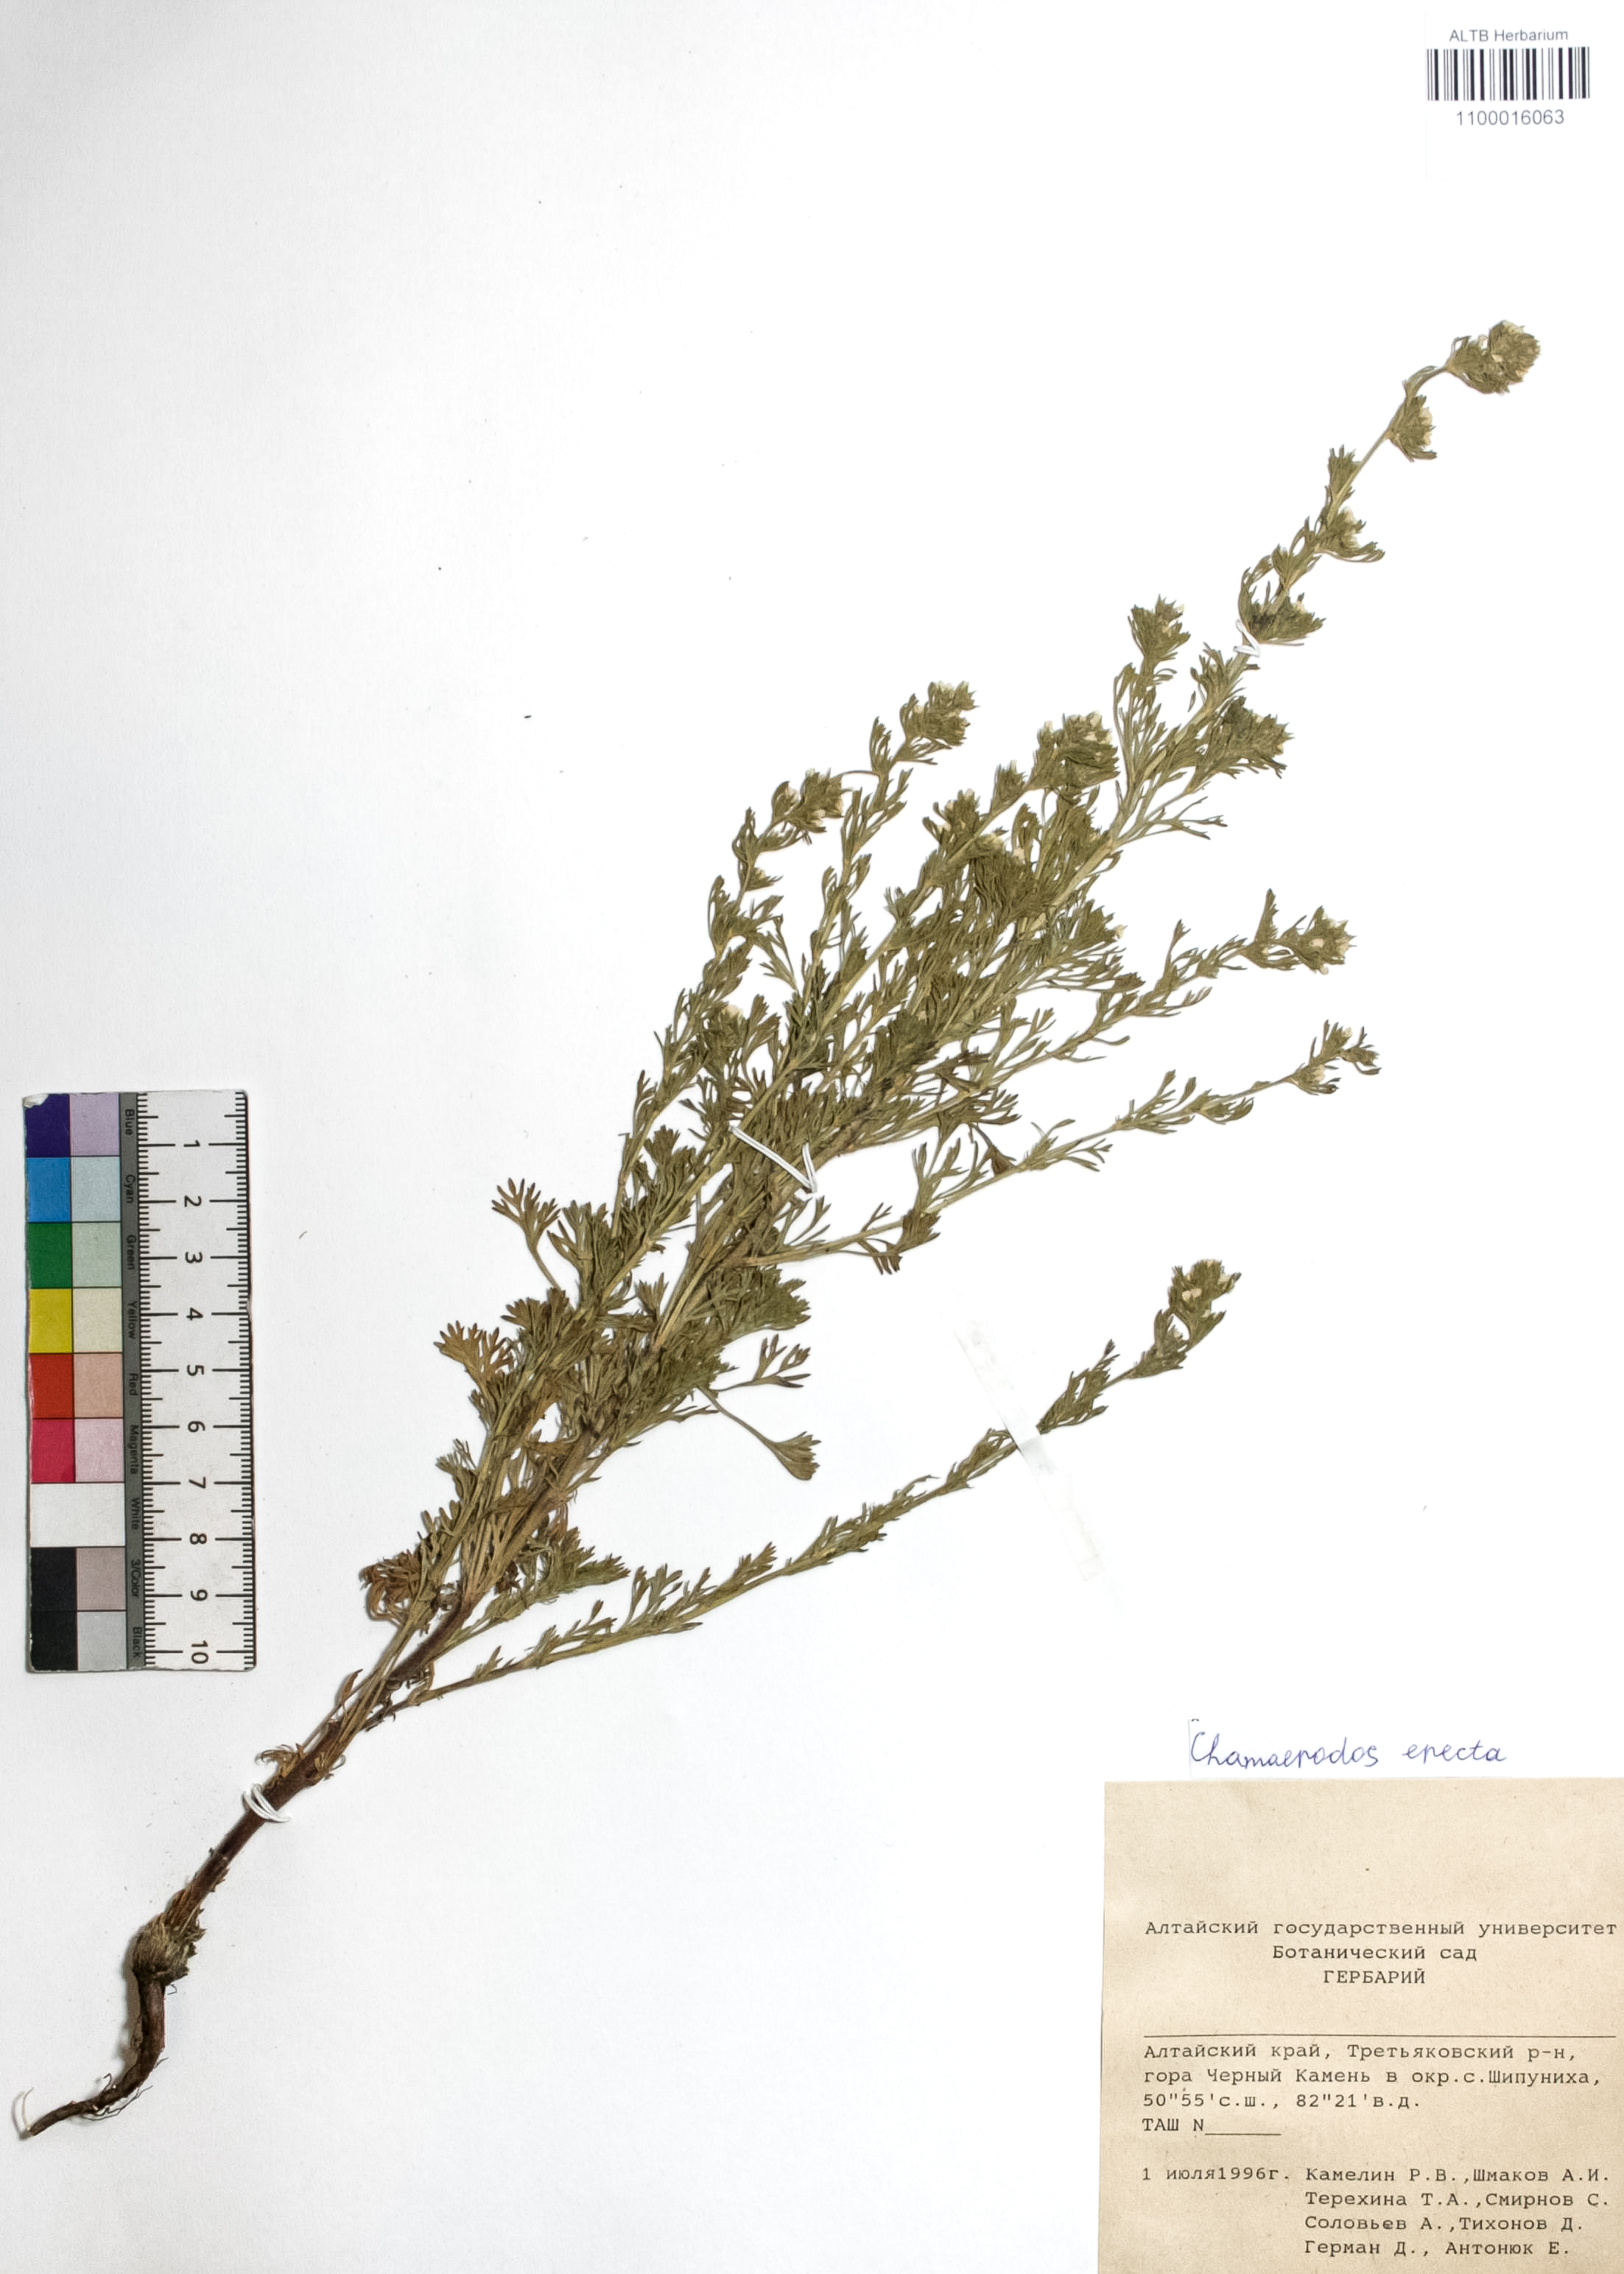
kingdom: Plantae
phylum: Tracheophyta
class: Magnoliopsida
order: Rosales
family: Rosaceae
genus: Chamaerhodos
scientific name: Chamaerhodos erecta
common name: American chamaerhodos
